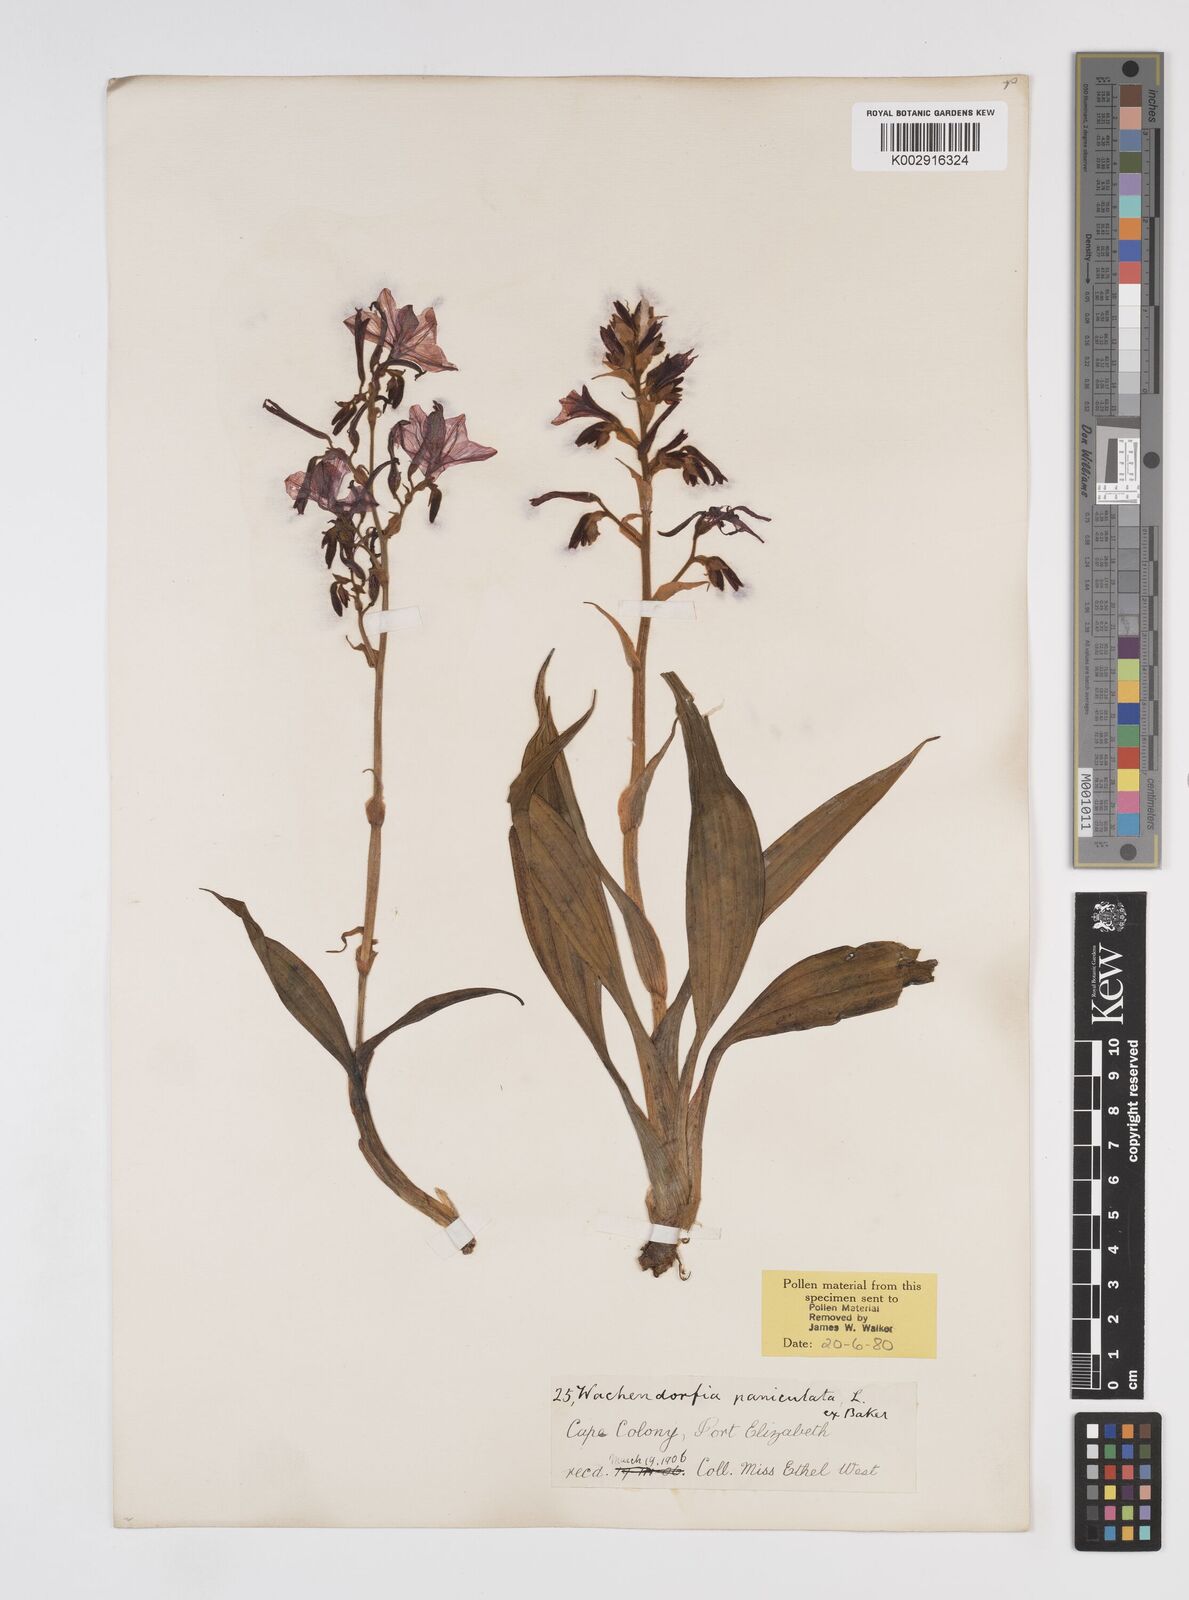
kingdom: Plantae
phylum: Tracheophyta
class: Liliopsida
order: Commelinales
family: Haemodoraceae
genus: Wachendorfia
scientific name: Wachendorfia paniculata
